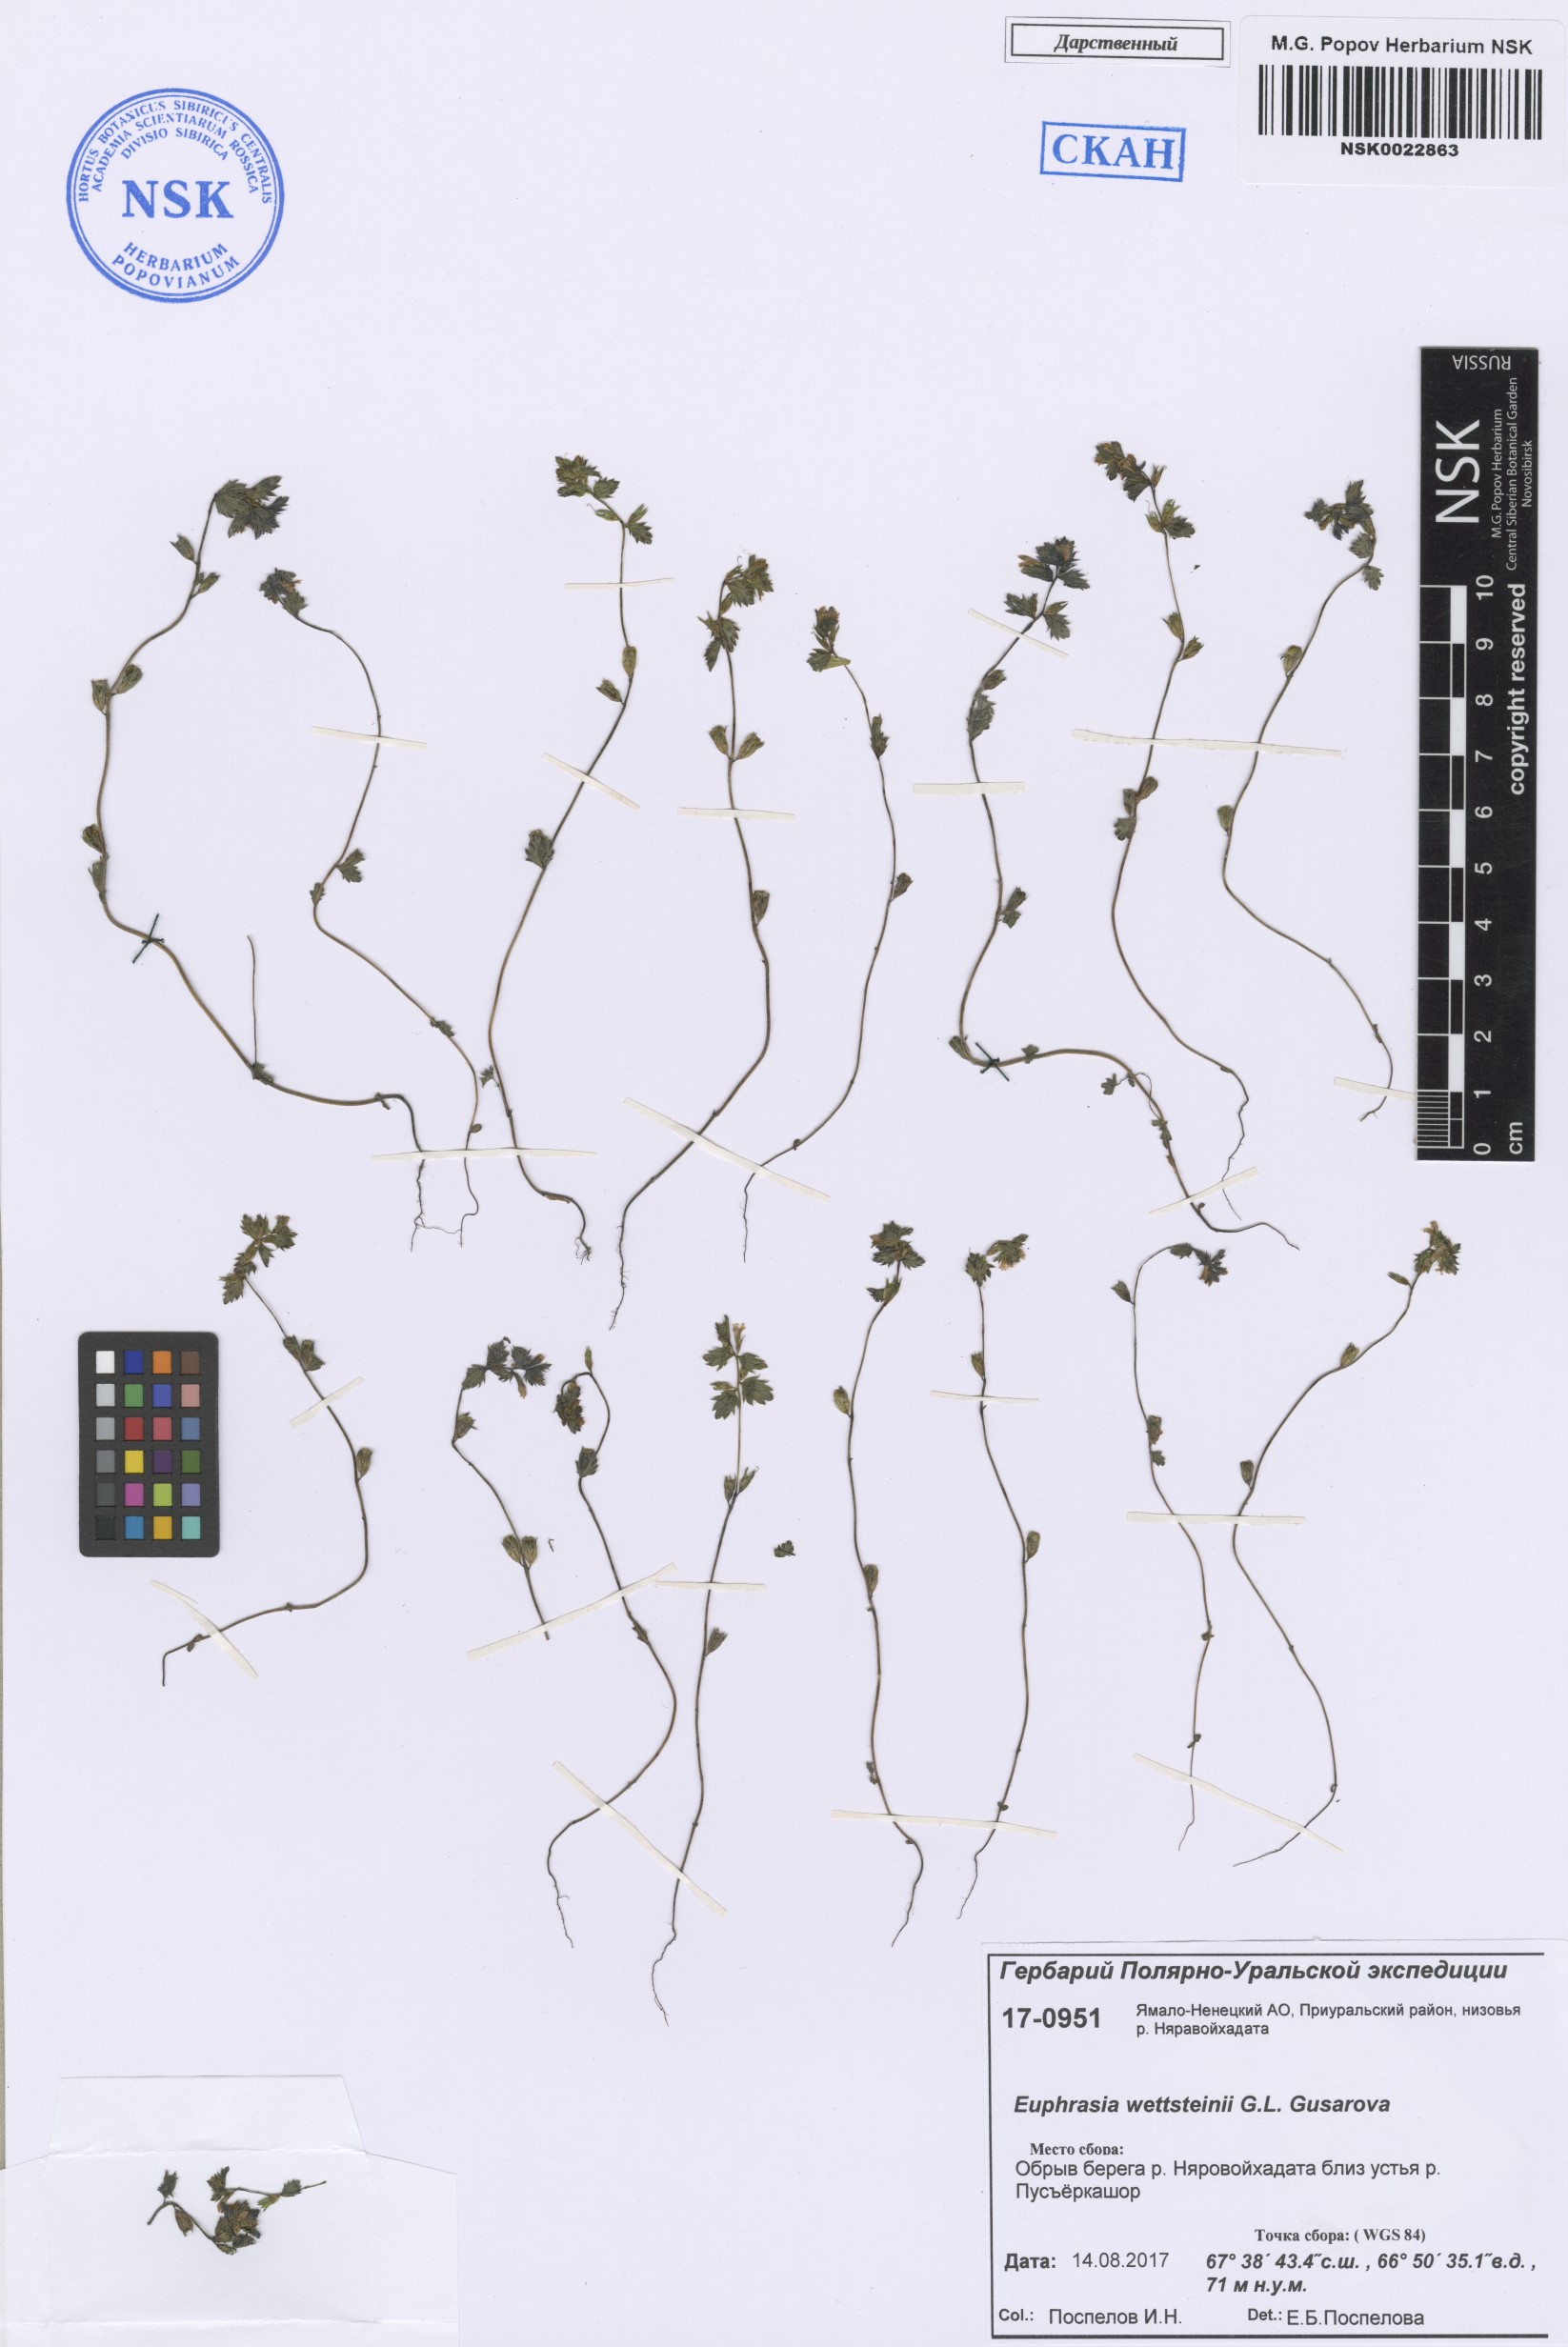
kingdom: Plantae
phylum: Tracheophyta
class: Magnoliopsida
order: Lamiales
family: Orobanchaceae
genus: Euphrasia
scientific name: Euphrasia wettsteinii
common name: Wettstein's eyebright
